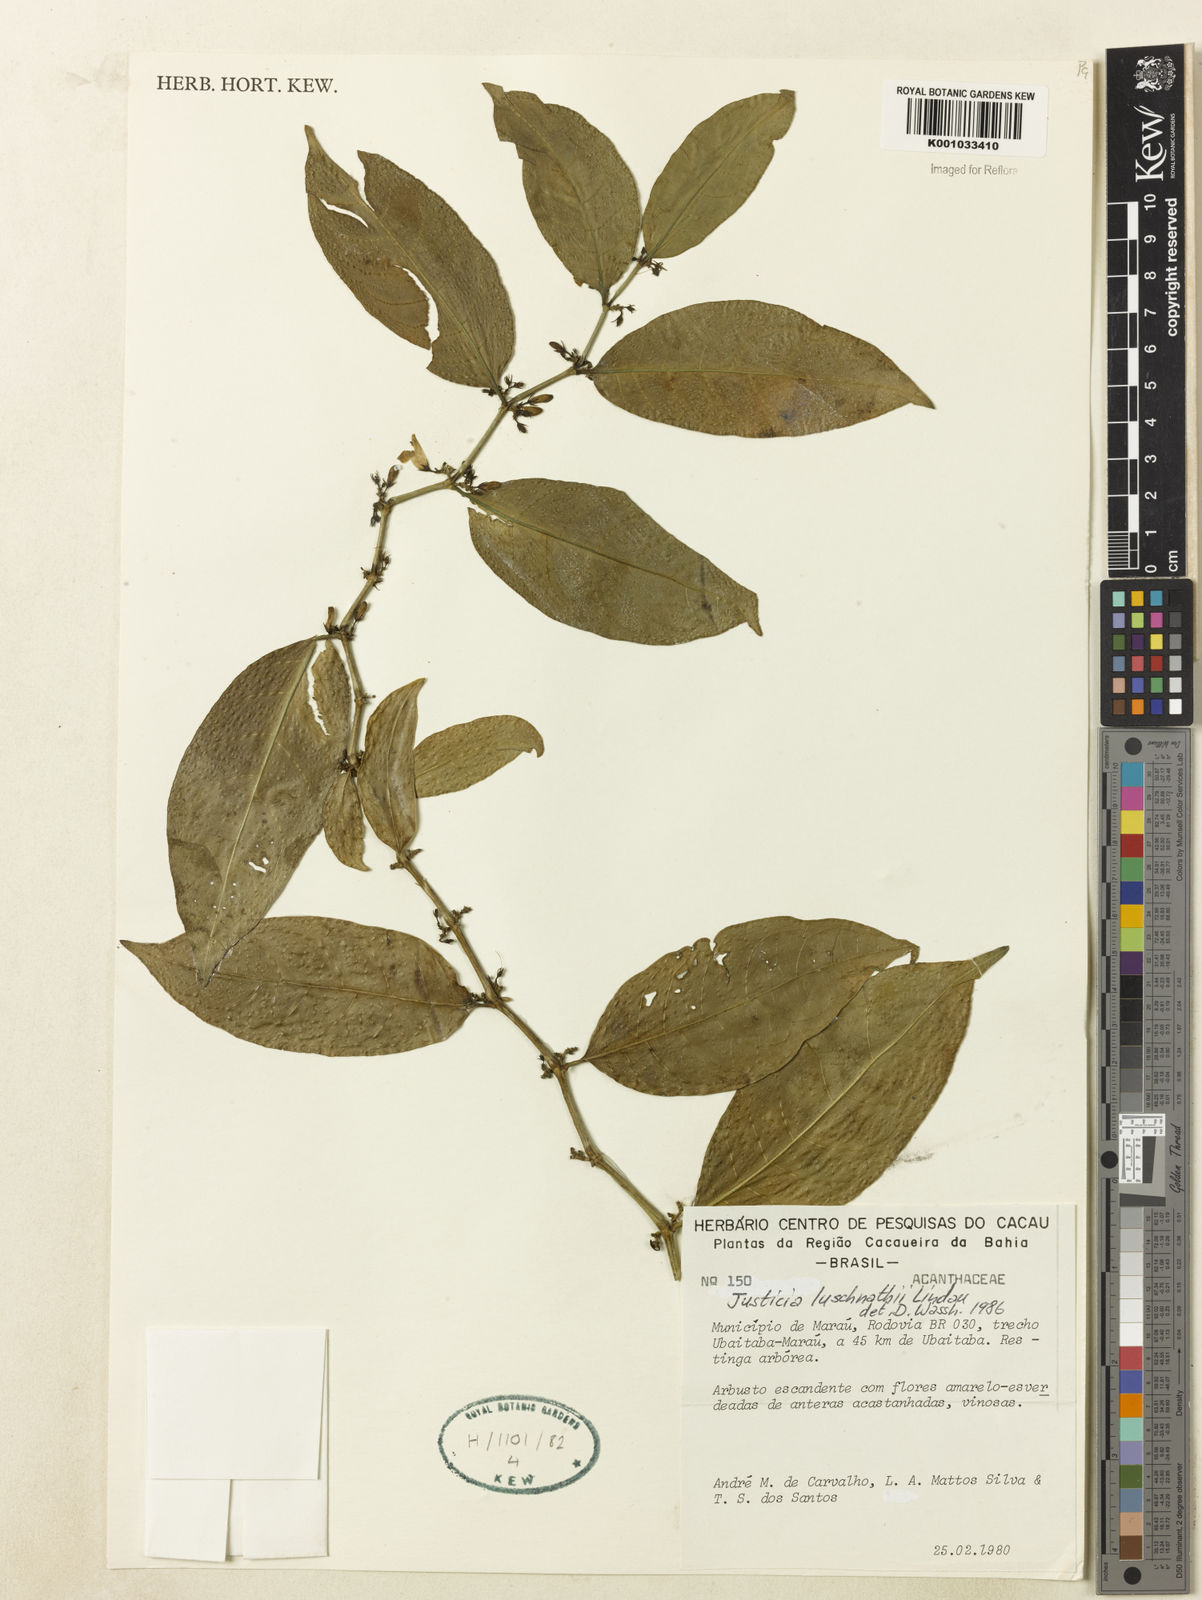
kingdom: Plantae
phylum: Tracheophyta
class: Magnoliopsida
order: Lamiales
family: Acanthaceae
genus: Justicia
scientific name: Justicia luschnathii
